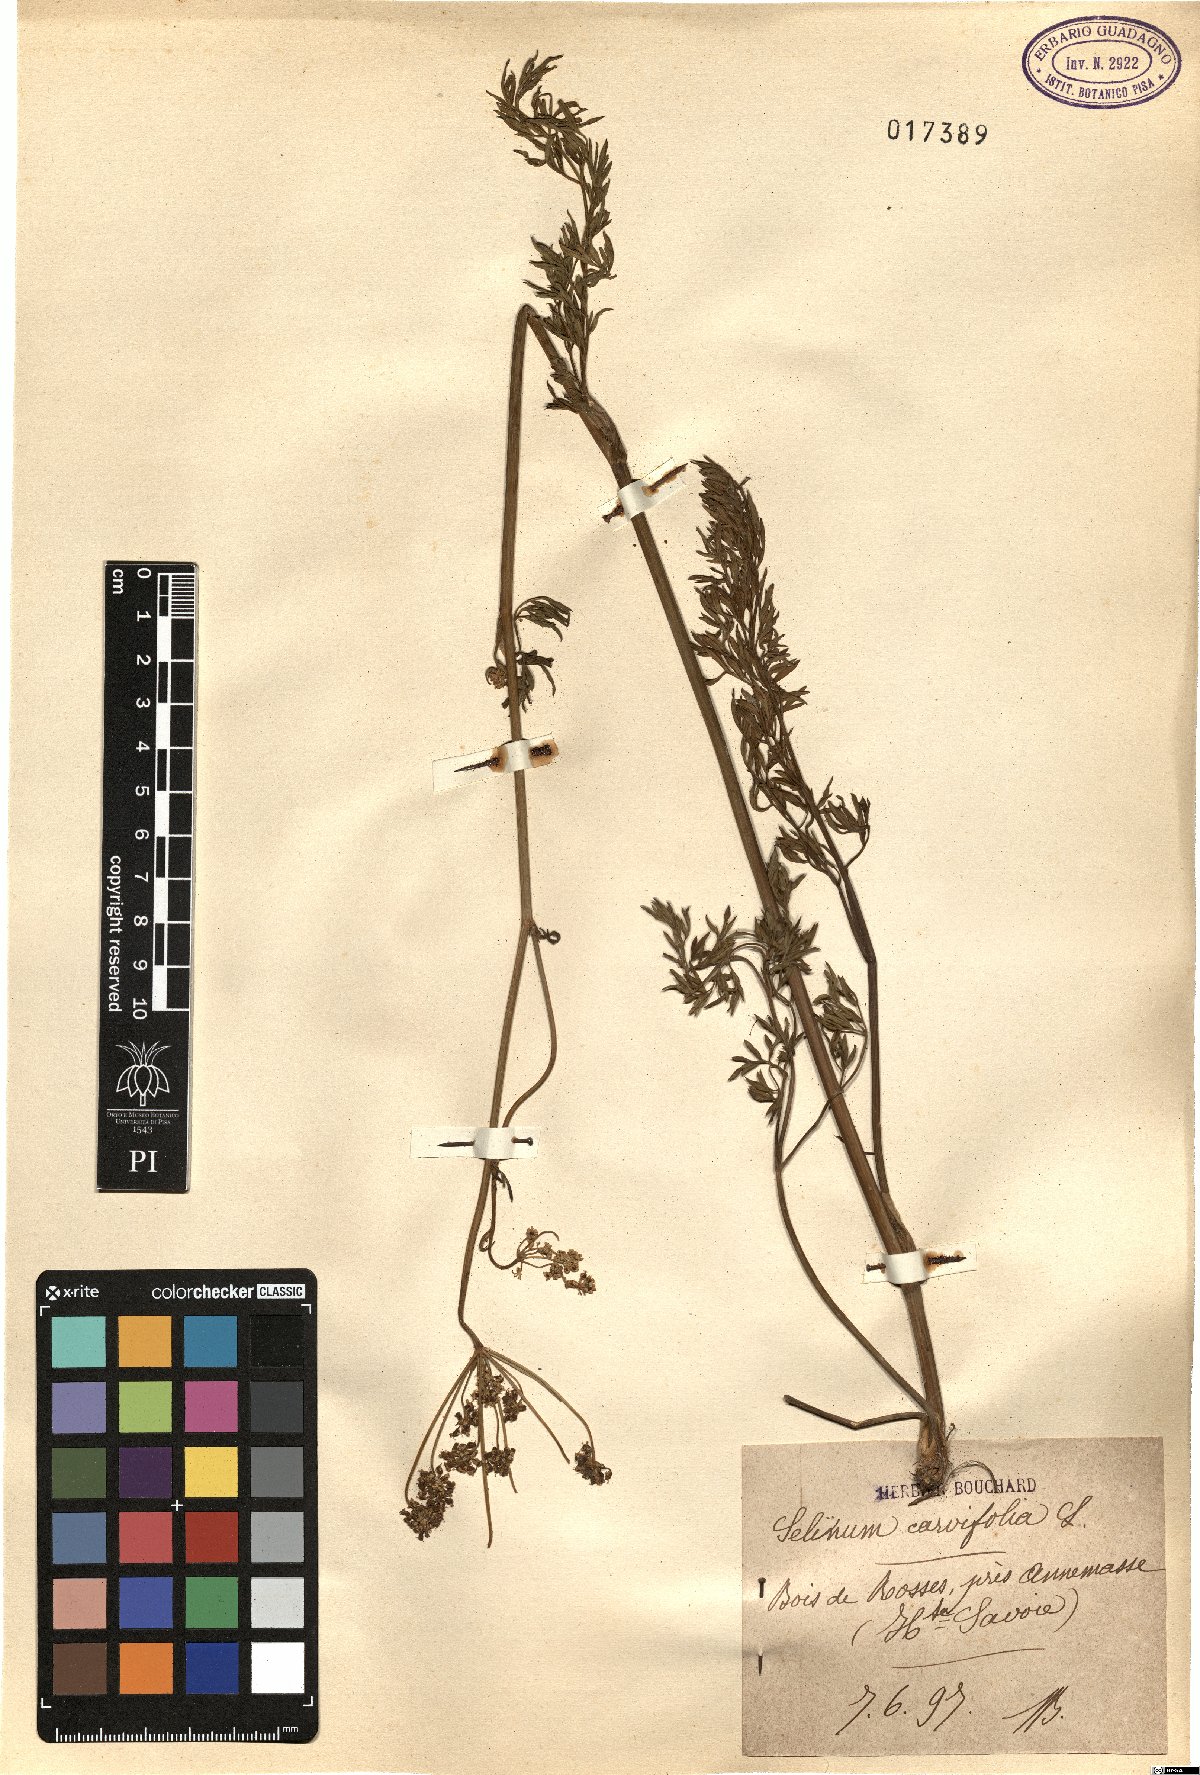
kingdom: Plantae
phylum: Tracheophyta
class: Magnoliopsida
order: Apiales
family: Apiaceae
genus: Selinum
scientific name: Selinum carvifolia
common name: Cambridge milk-parsley
